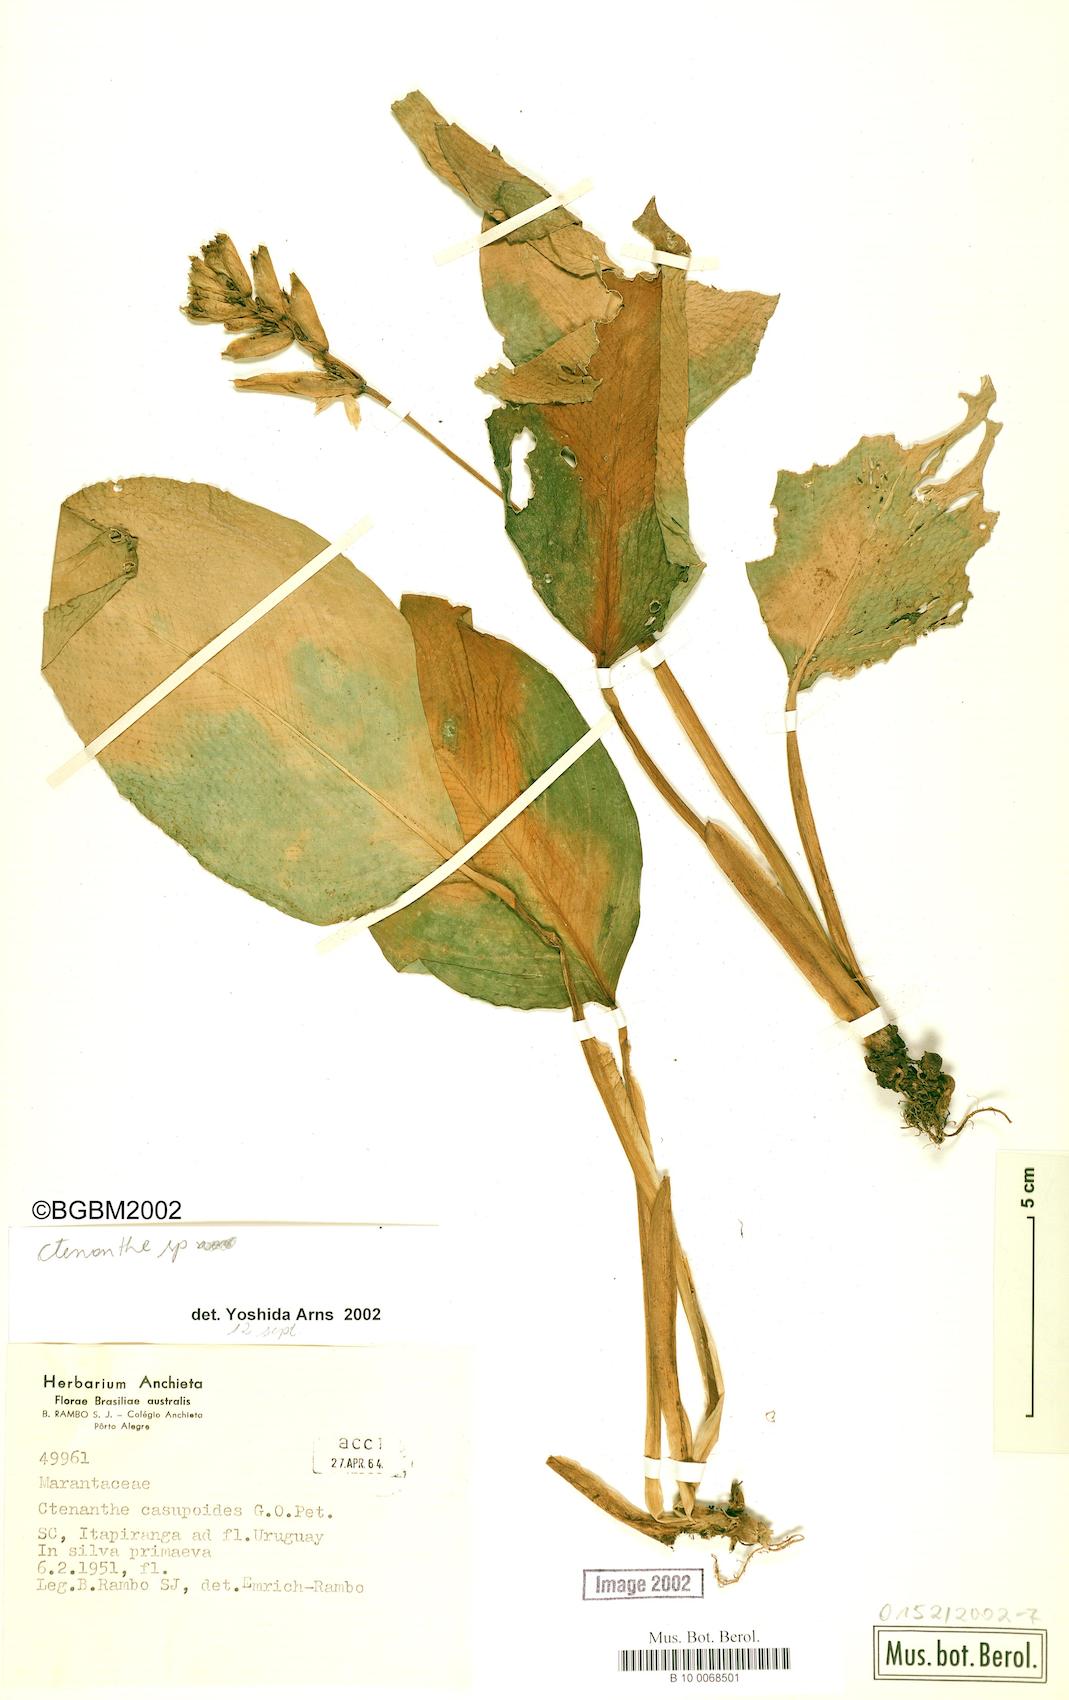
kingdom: Plantae
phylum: Tracheophyta
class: Liliopsida
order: Zingiberales
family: Marantaceae
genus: Ctenanthe
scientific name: Ctenanthe
